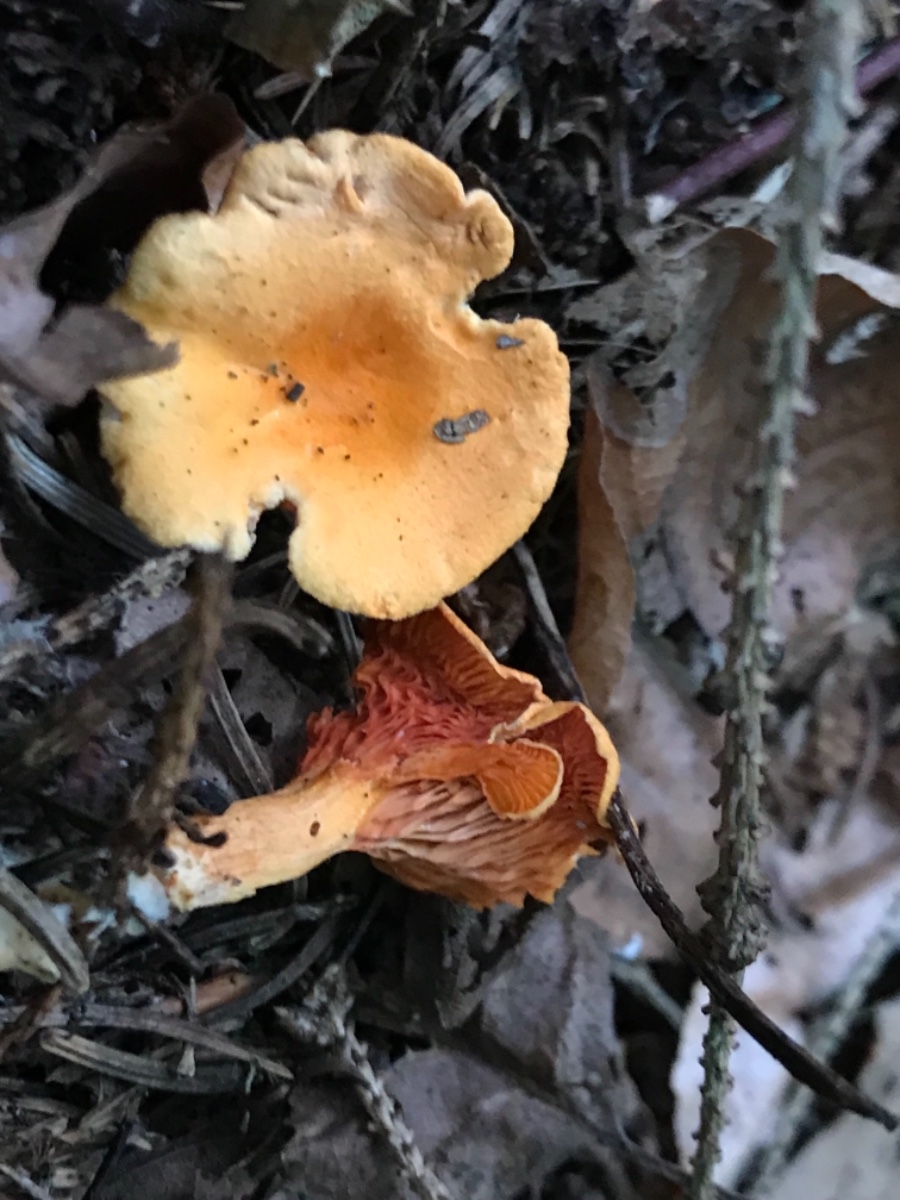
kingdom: Fungi
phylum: Basidiomycota
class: Agaricomycetes
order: Boletales
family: Hygrophoropsidaceae
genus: Hygrophoropsis
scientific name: Hygrophoropsis aurantiaca
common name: almindelig orangekantarel
